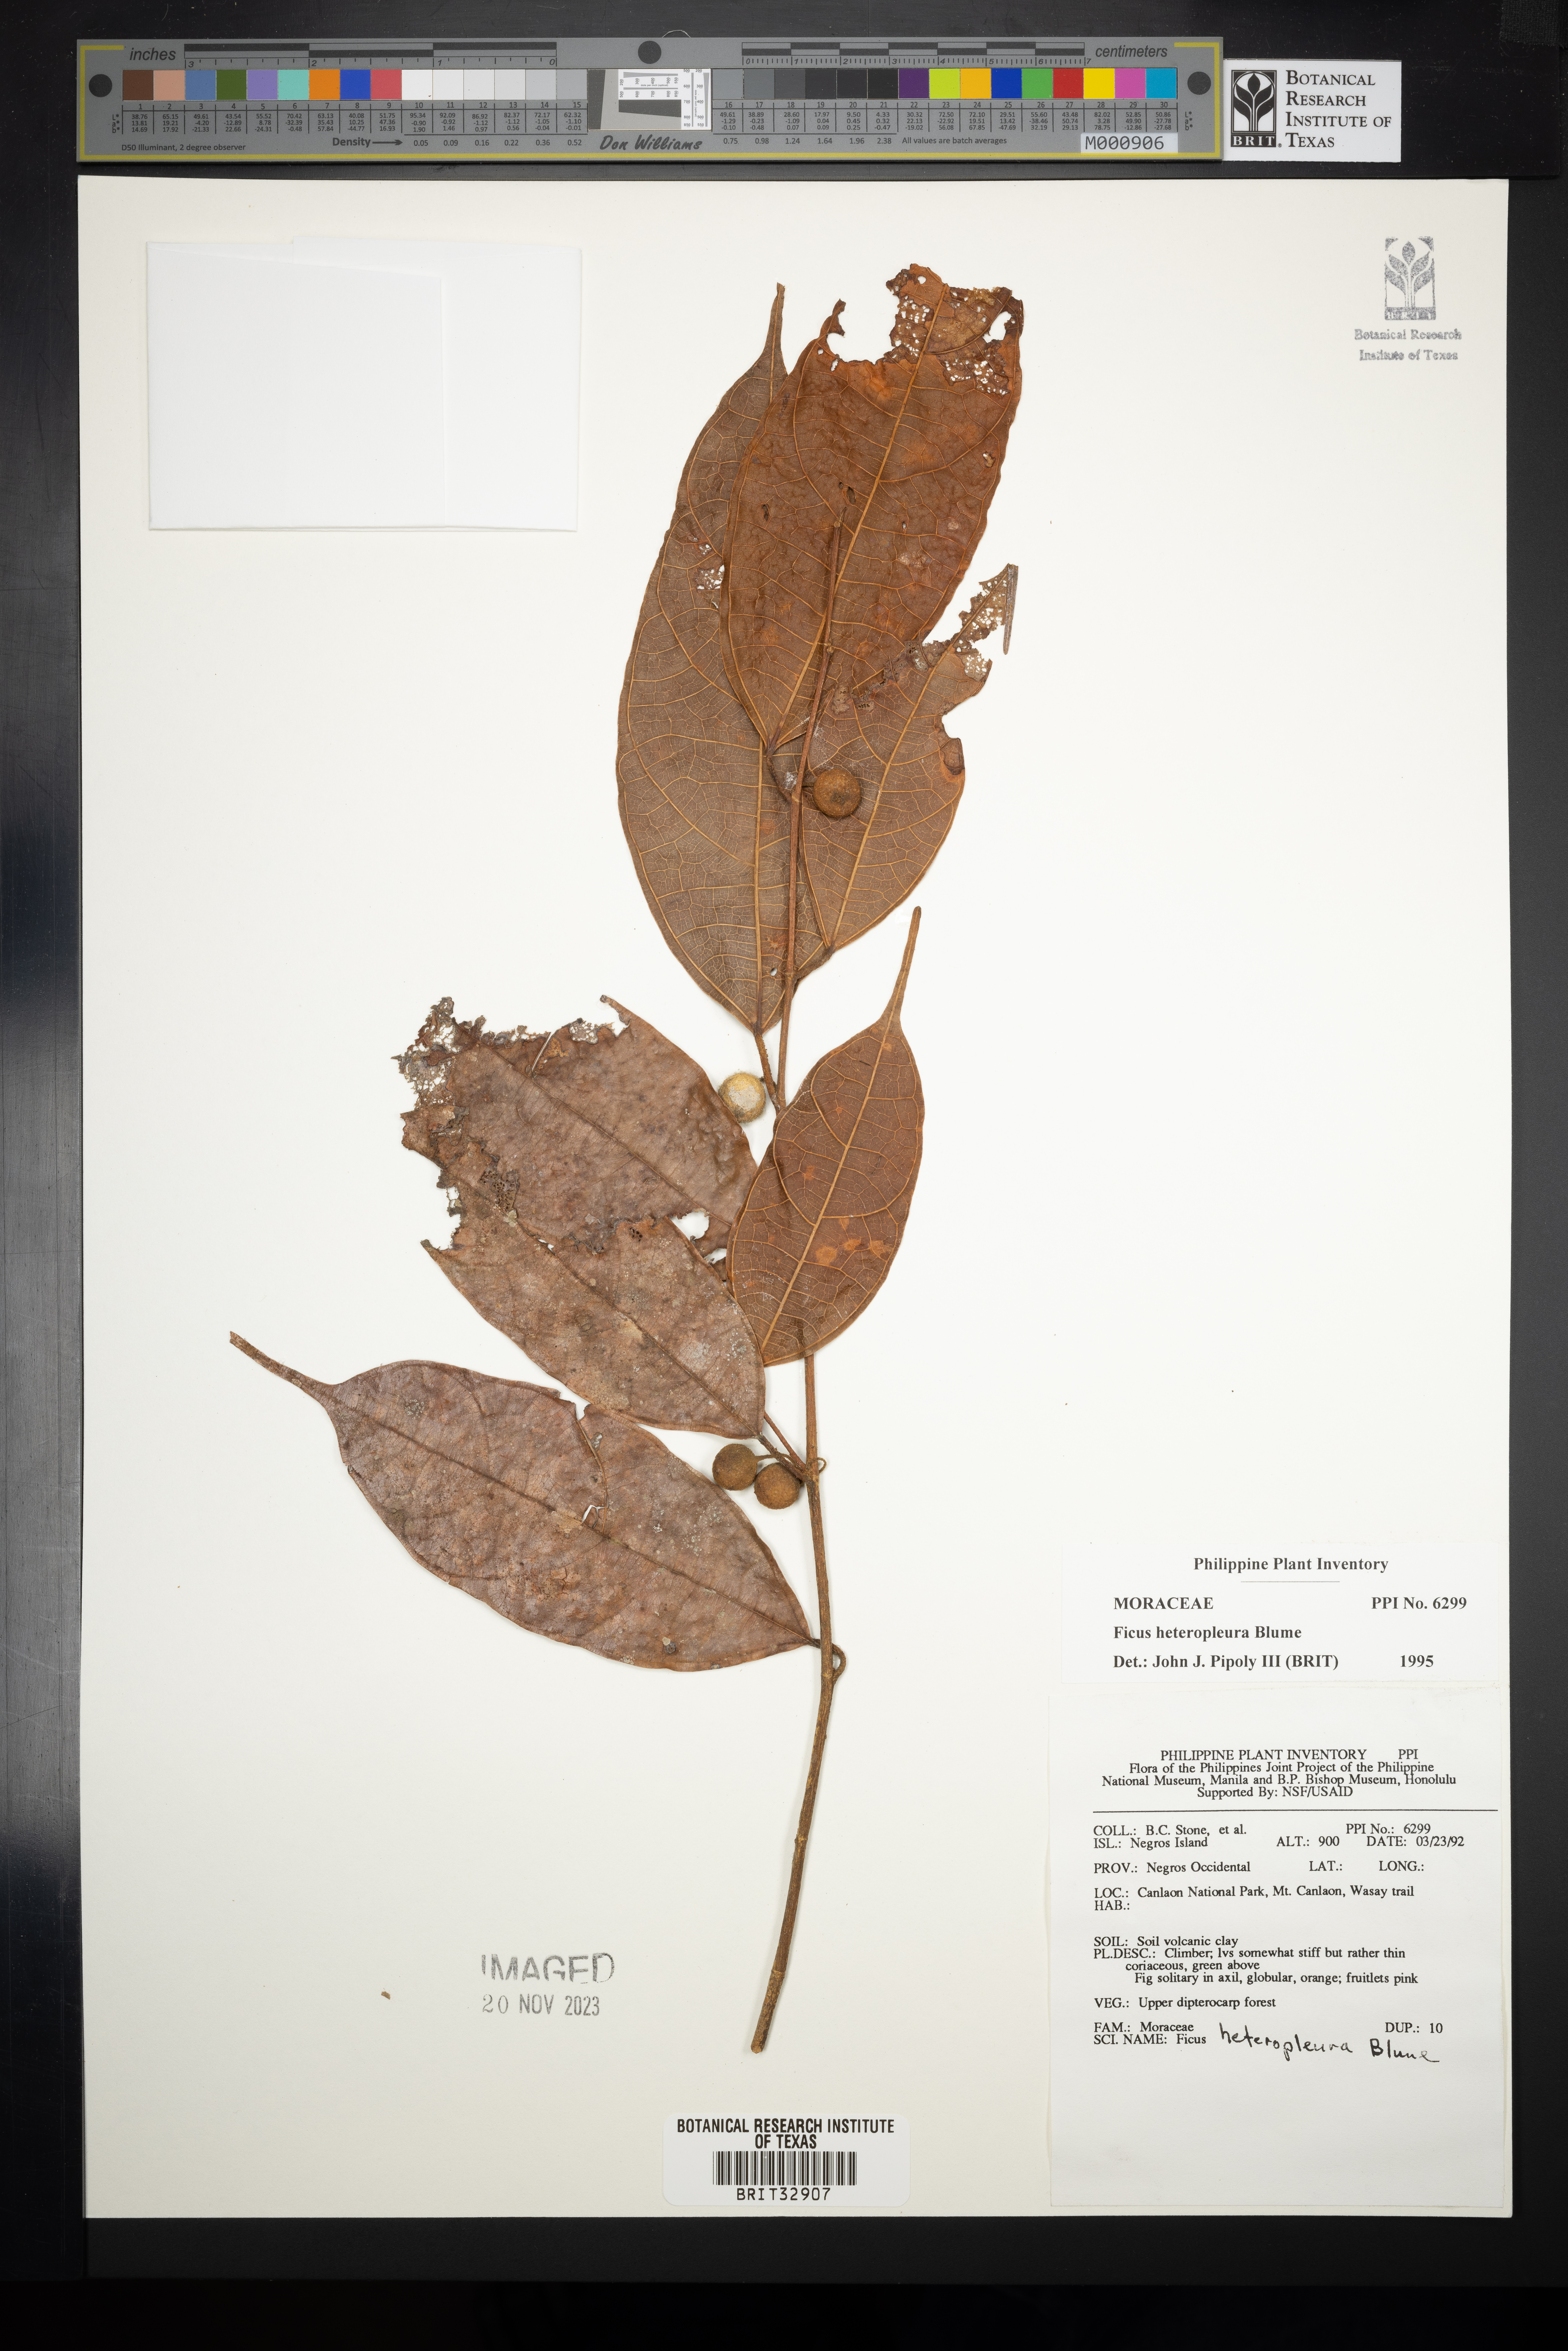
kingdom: Plantae
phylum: Tracheophyta
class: Magnoliopsida
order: Rosales
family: Moraceae
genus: Ficus
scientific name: Ficus heteropleura
